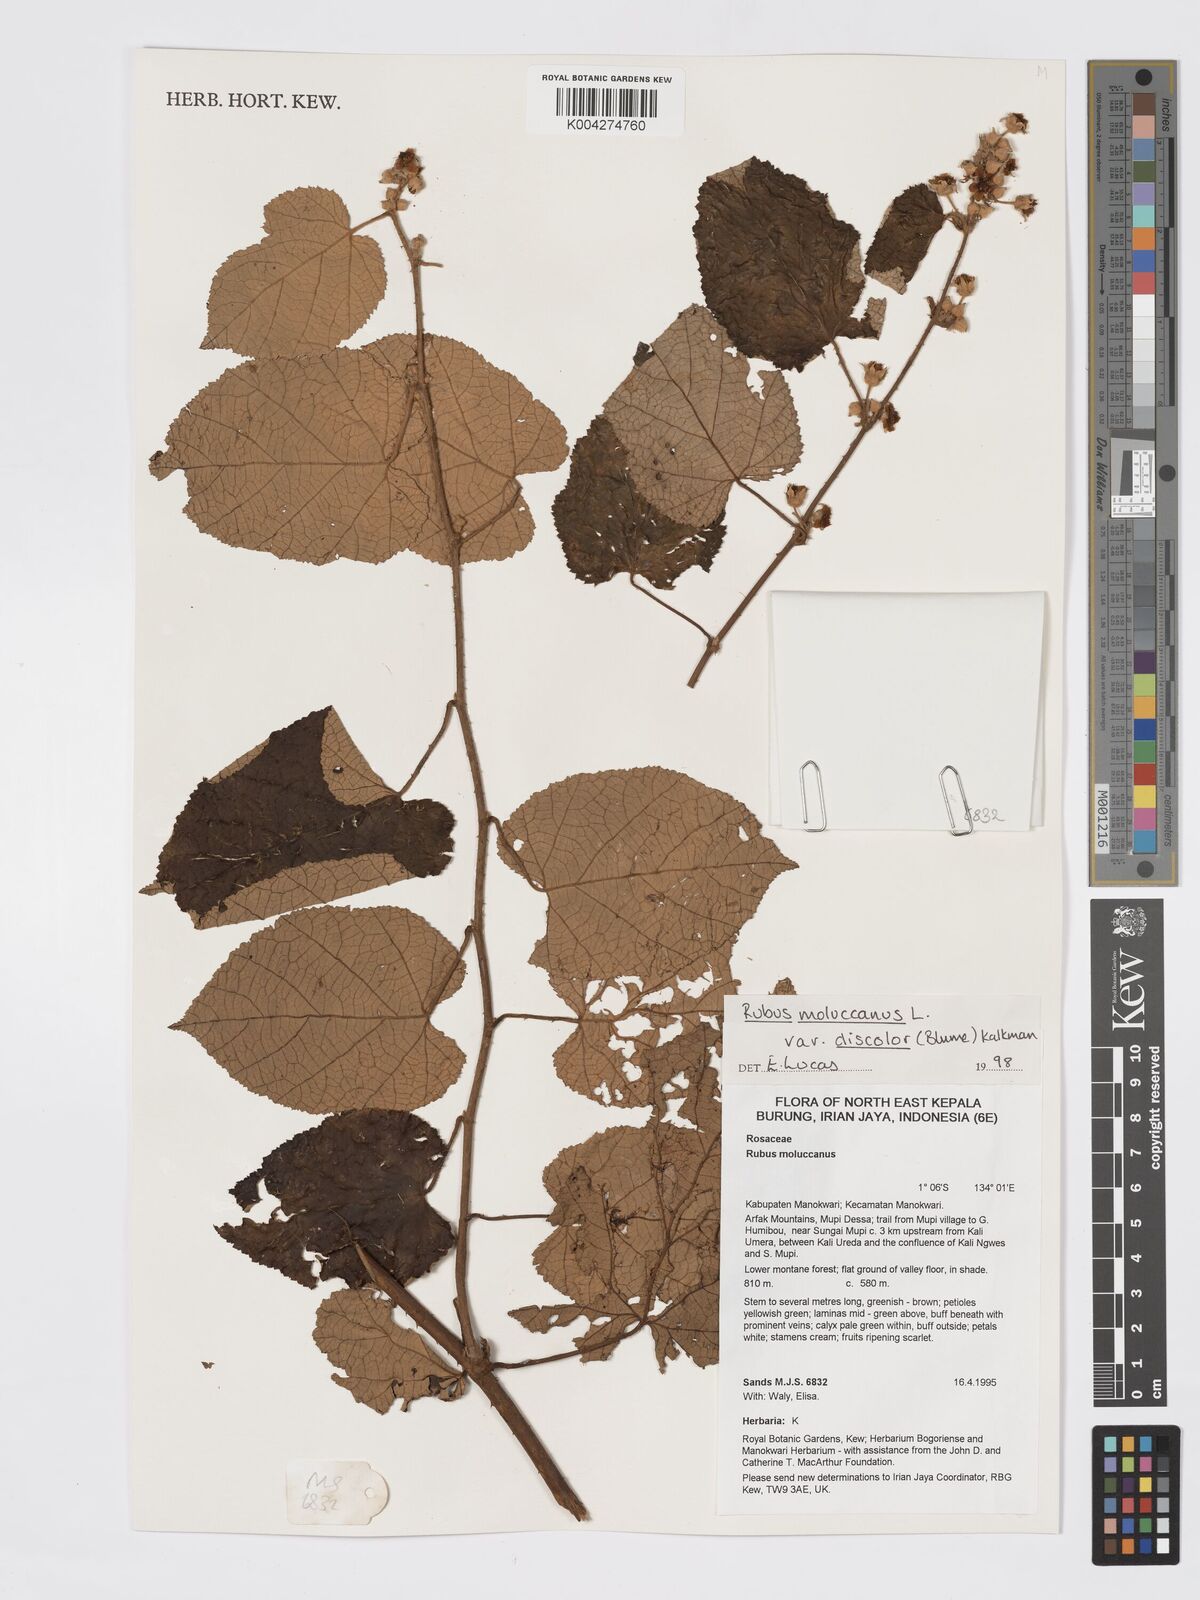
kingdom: Plantae
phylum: Tracheophyta
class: Magnoliopsida
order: Rosales
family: Rosaceae
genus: Rubus
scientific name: Rubus moluccanus
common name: Wild raspberry
